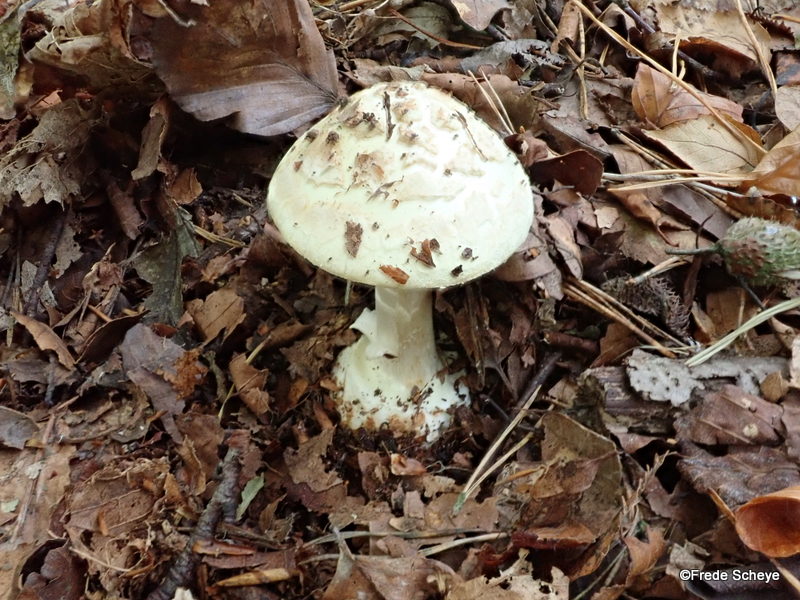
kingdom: Fungi
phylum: Basidiomycota
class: Agaricomycetes
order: Agaricales
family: Amanitaceae
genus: Amanita
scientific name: Amanita citrina
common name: kugleknoldet fluesvamp
